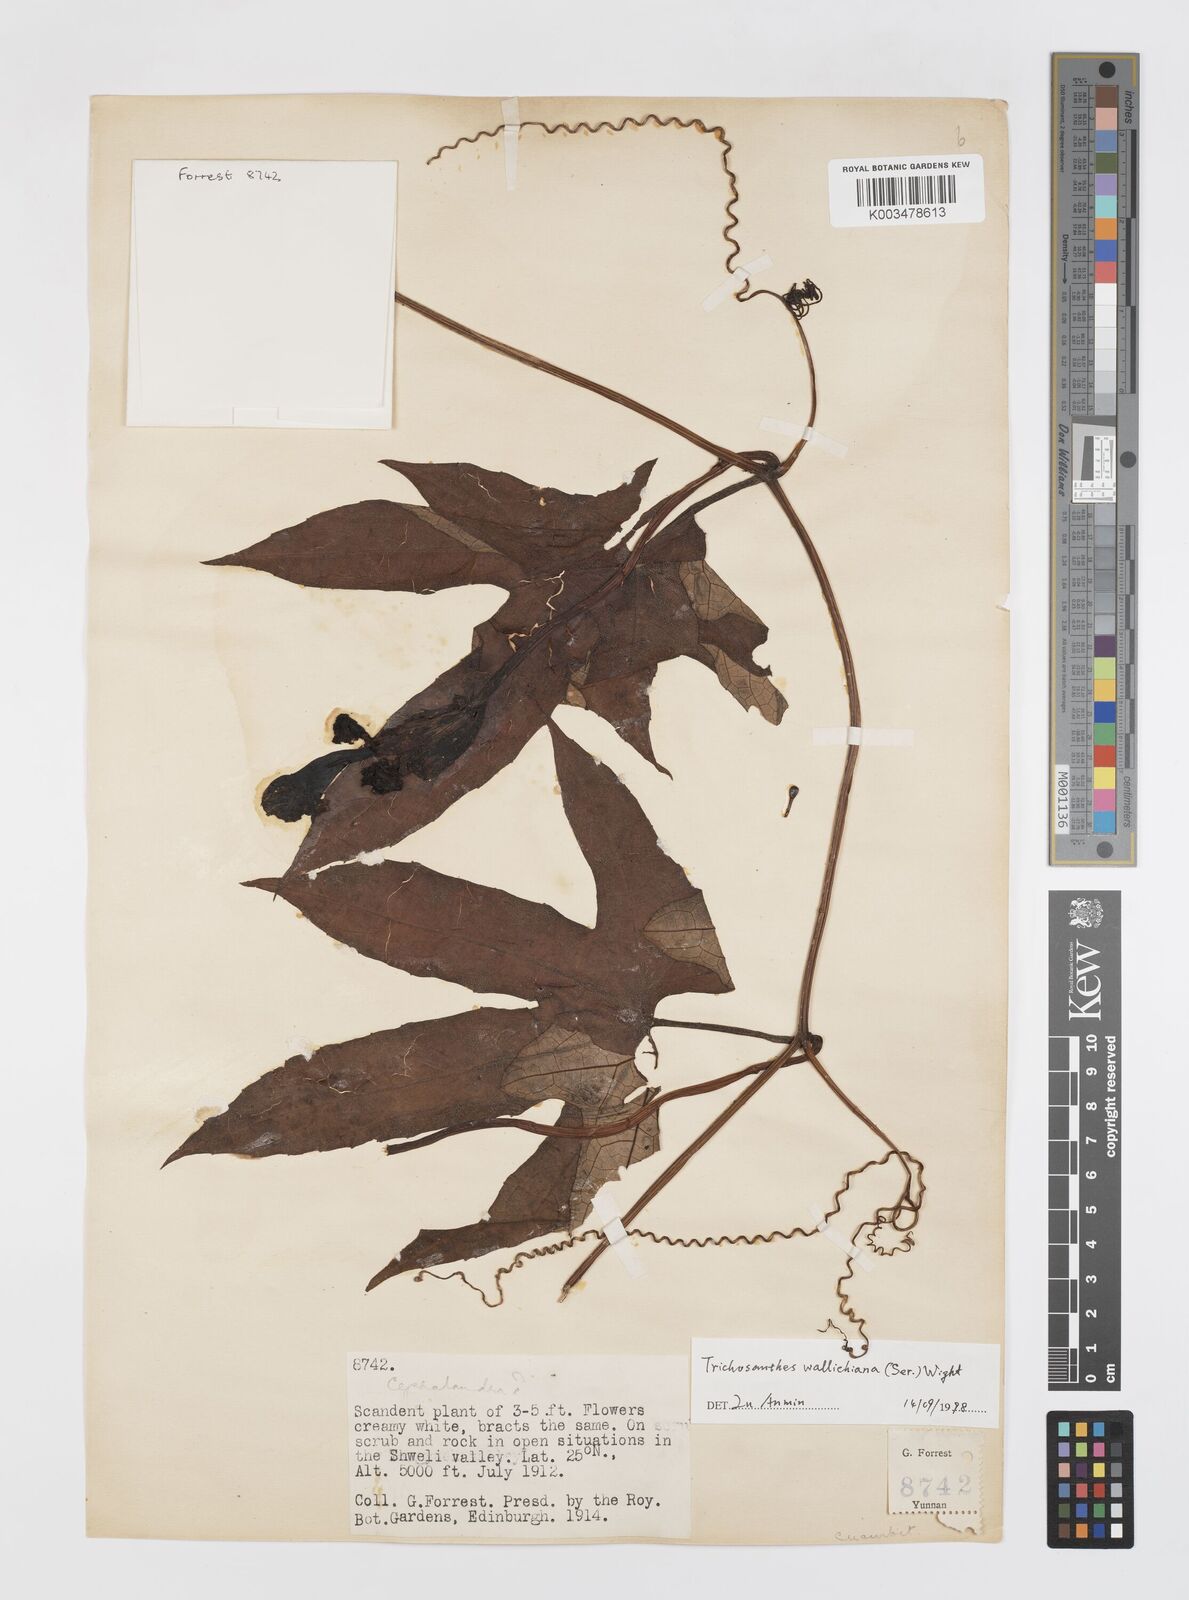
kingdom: Plantae
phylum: Tracheophyta
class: Magnoliopsida
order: Cucurbitales
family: Cucurbitaceae
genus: Trichosanthes
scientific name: Trichosanthes wallichiana
